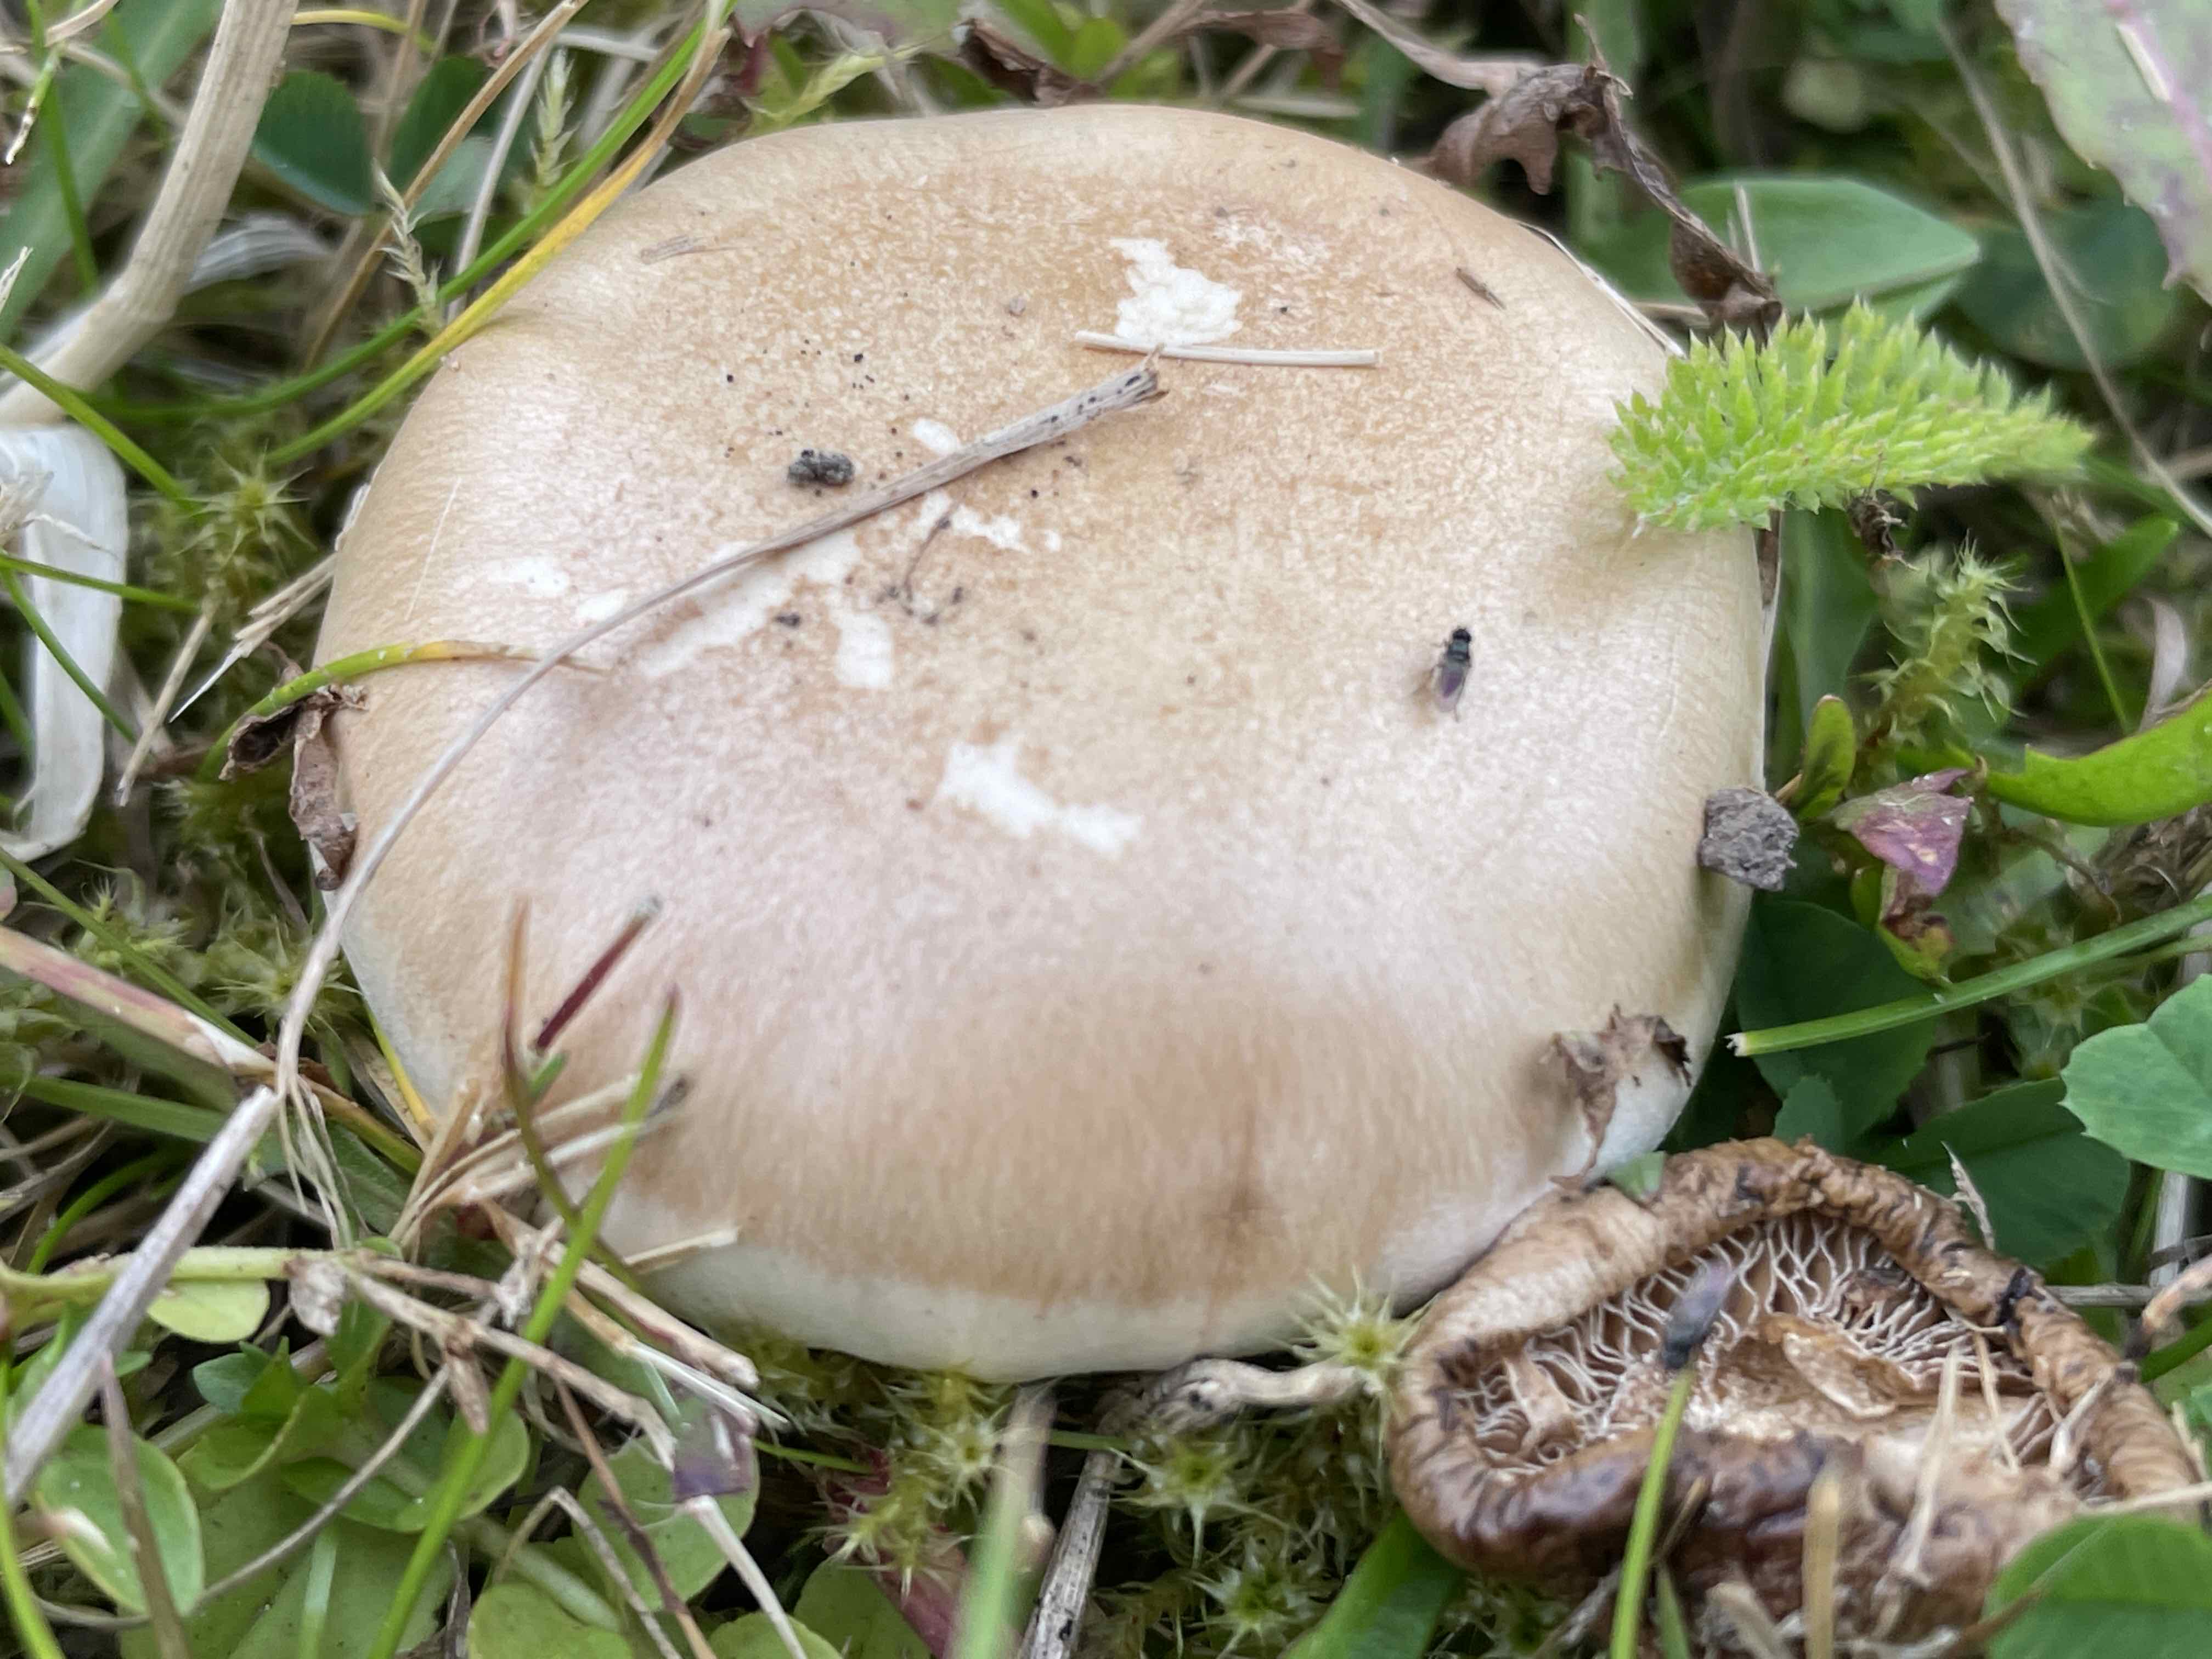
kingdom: Fungi
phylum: Basidiomycota
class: Agaricomycetes
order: Agaricales
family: Hymenogastraceae
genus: Hebeloma
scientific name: Hebeloma
